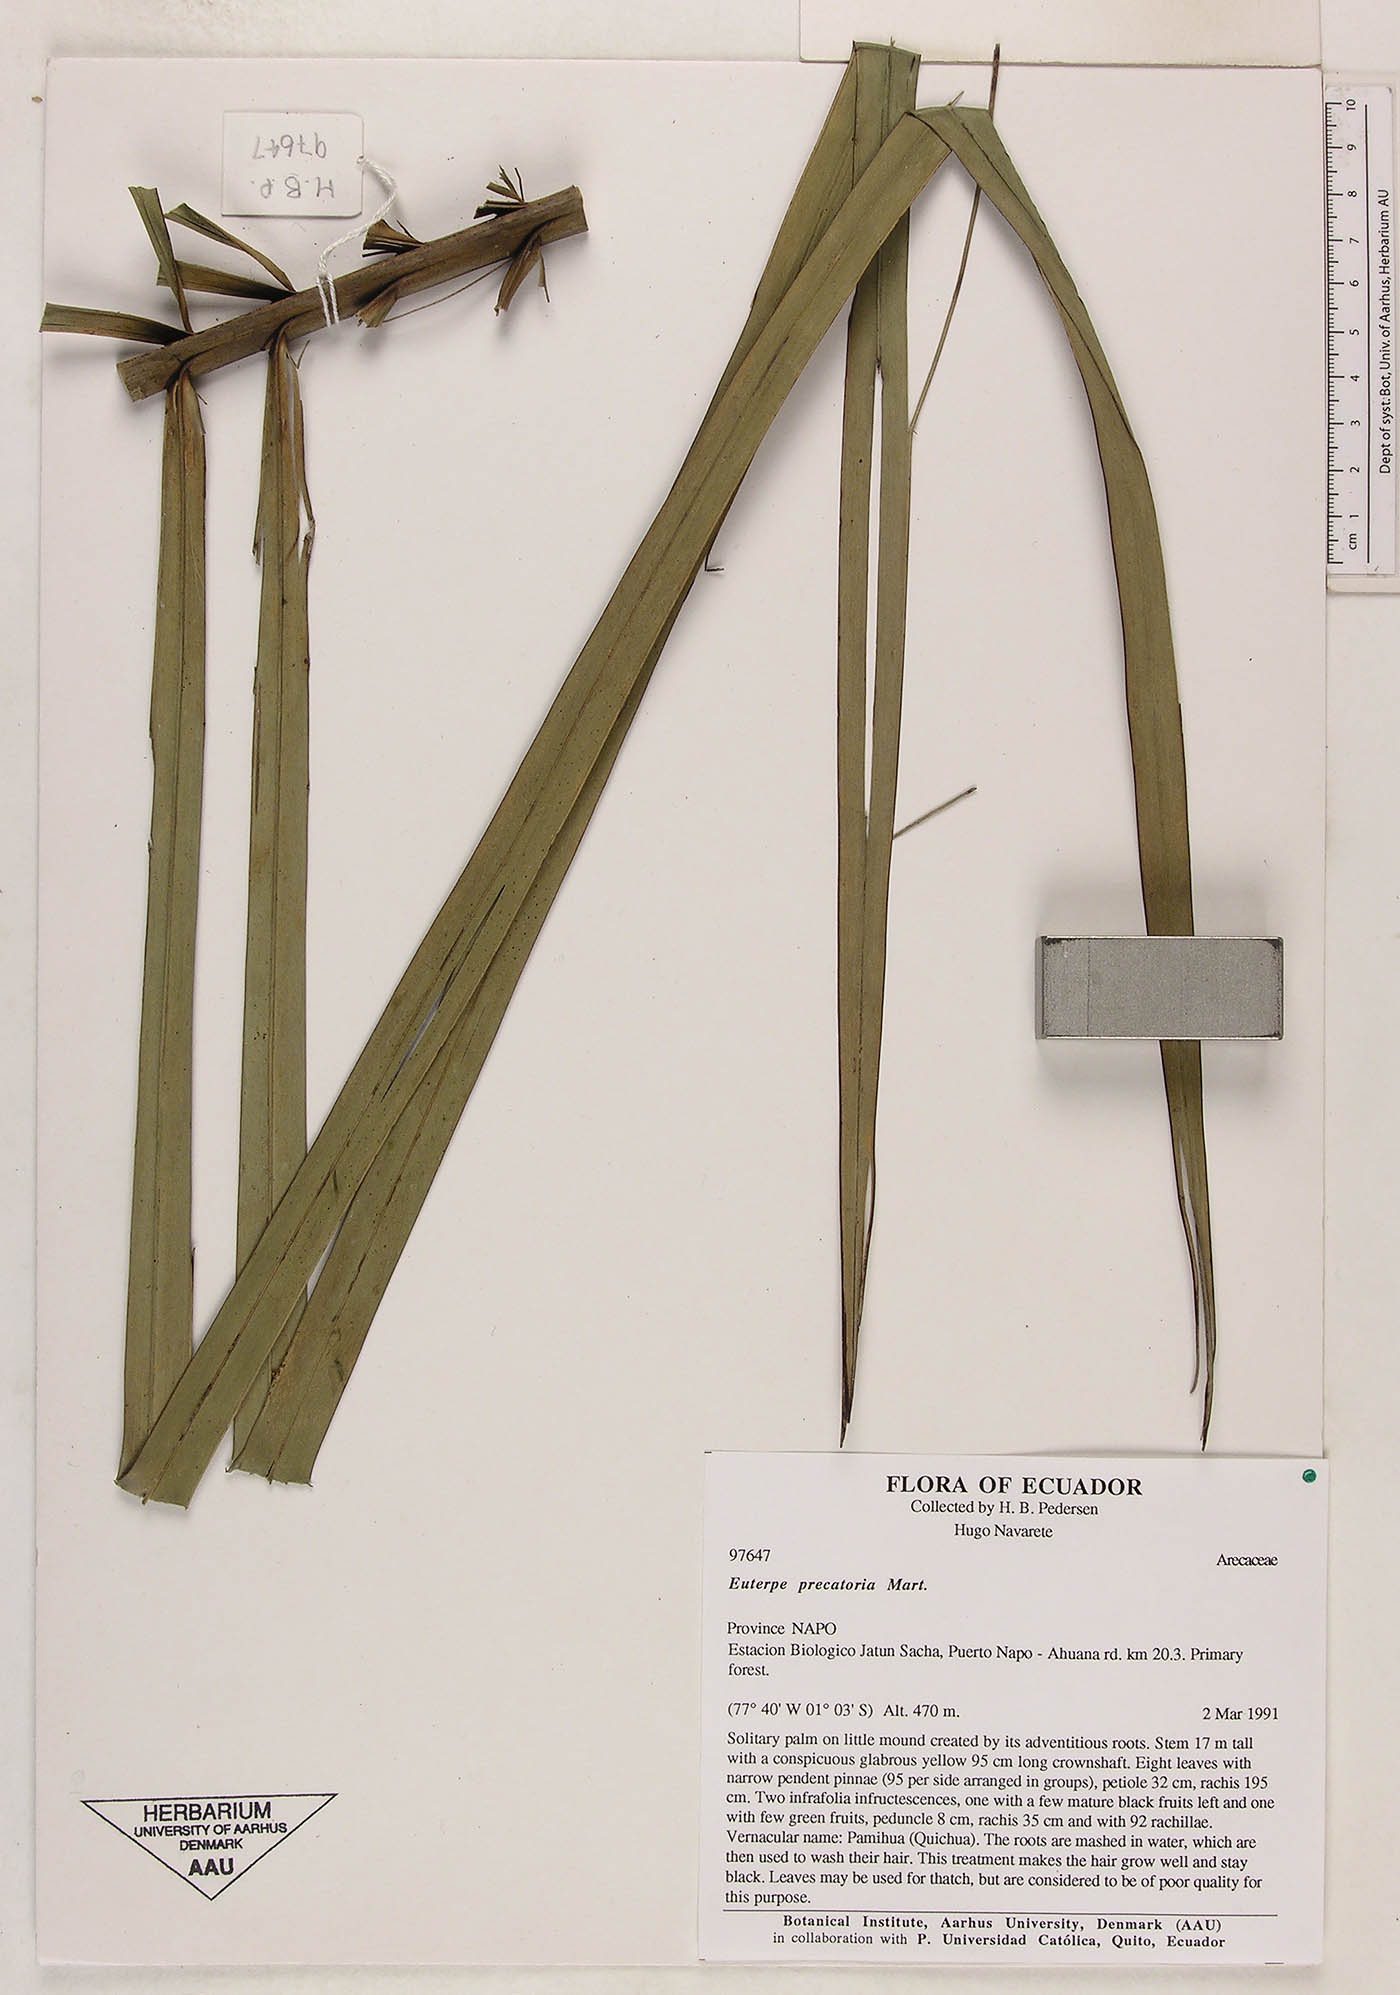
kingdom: Plantae
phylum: Tracheophyta
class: Liliopsida
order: Arecales
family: Arecaceae
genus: Euterpe
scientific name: Euterpe precatoria
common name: Mountain-cabbage
